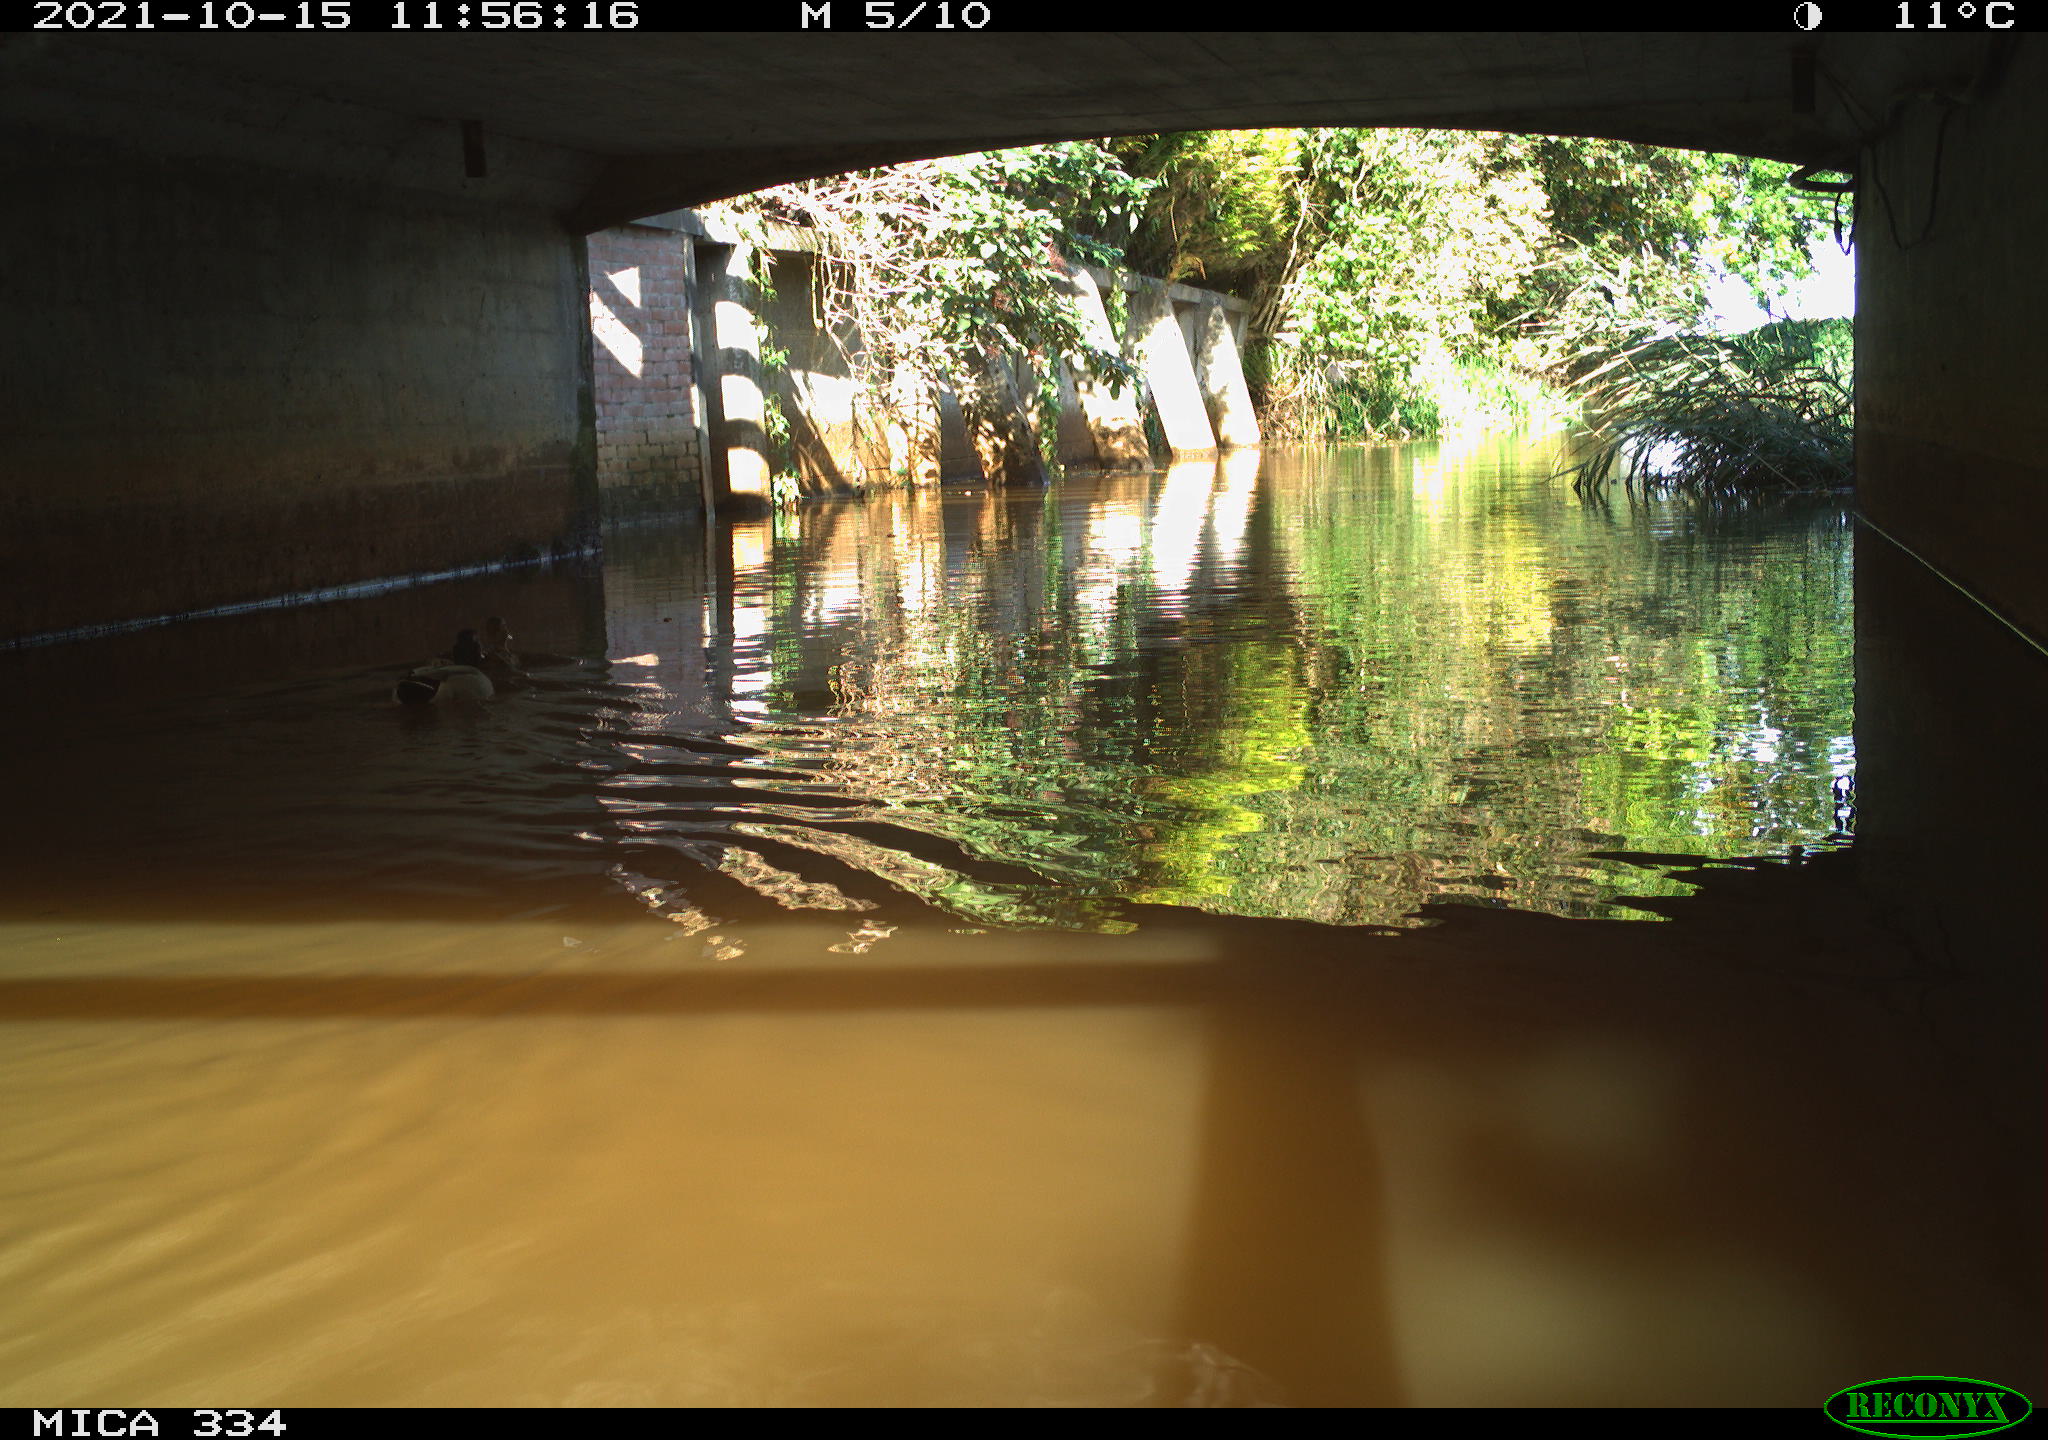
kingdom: Animalia
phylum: Chordata
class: Aves
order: Anseriformes
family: Anatidae
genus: Anas
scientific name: Anas platyrhynchos
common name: Mallard
